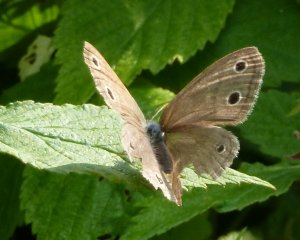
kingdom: Animalia
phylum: Arthropoda
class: Insecta
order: Lepidoptera
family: Nymphalidae
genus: Euptychia
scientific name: Euptychia cymela
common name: Little Wood Satyr
